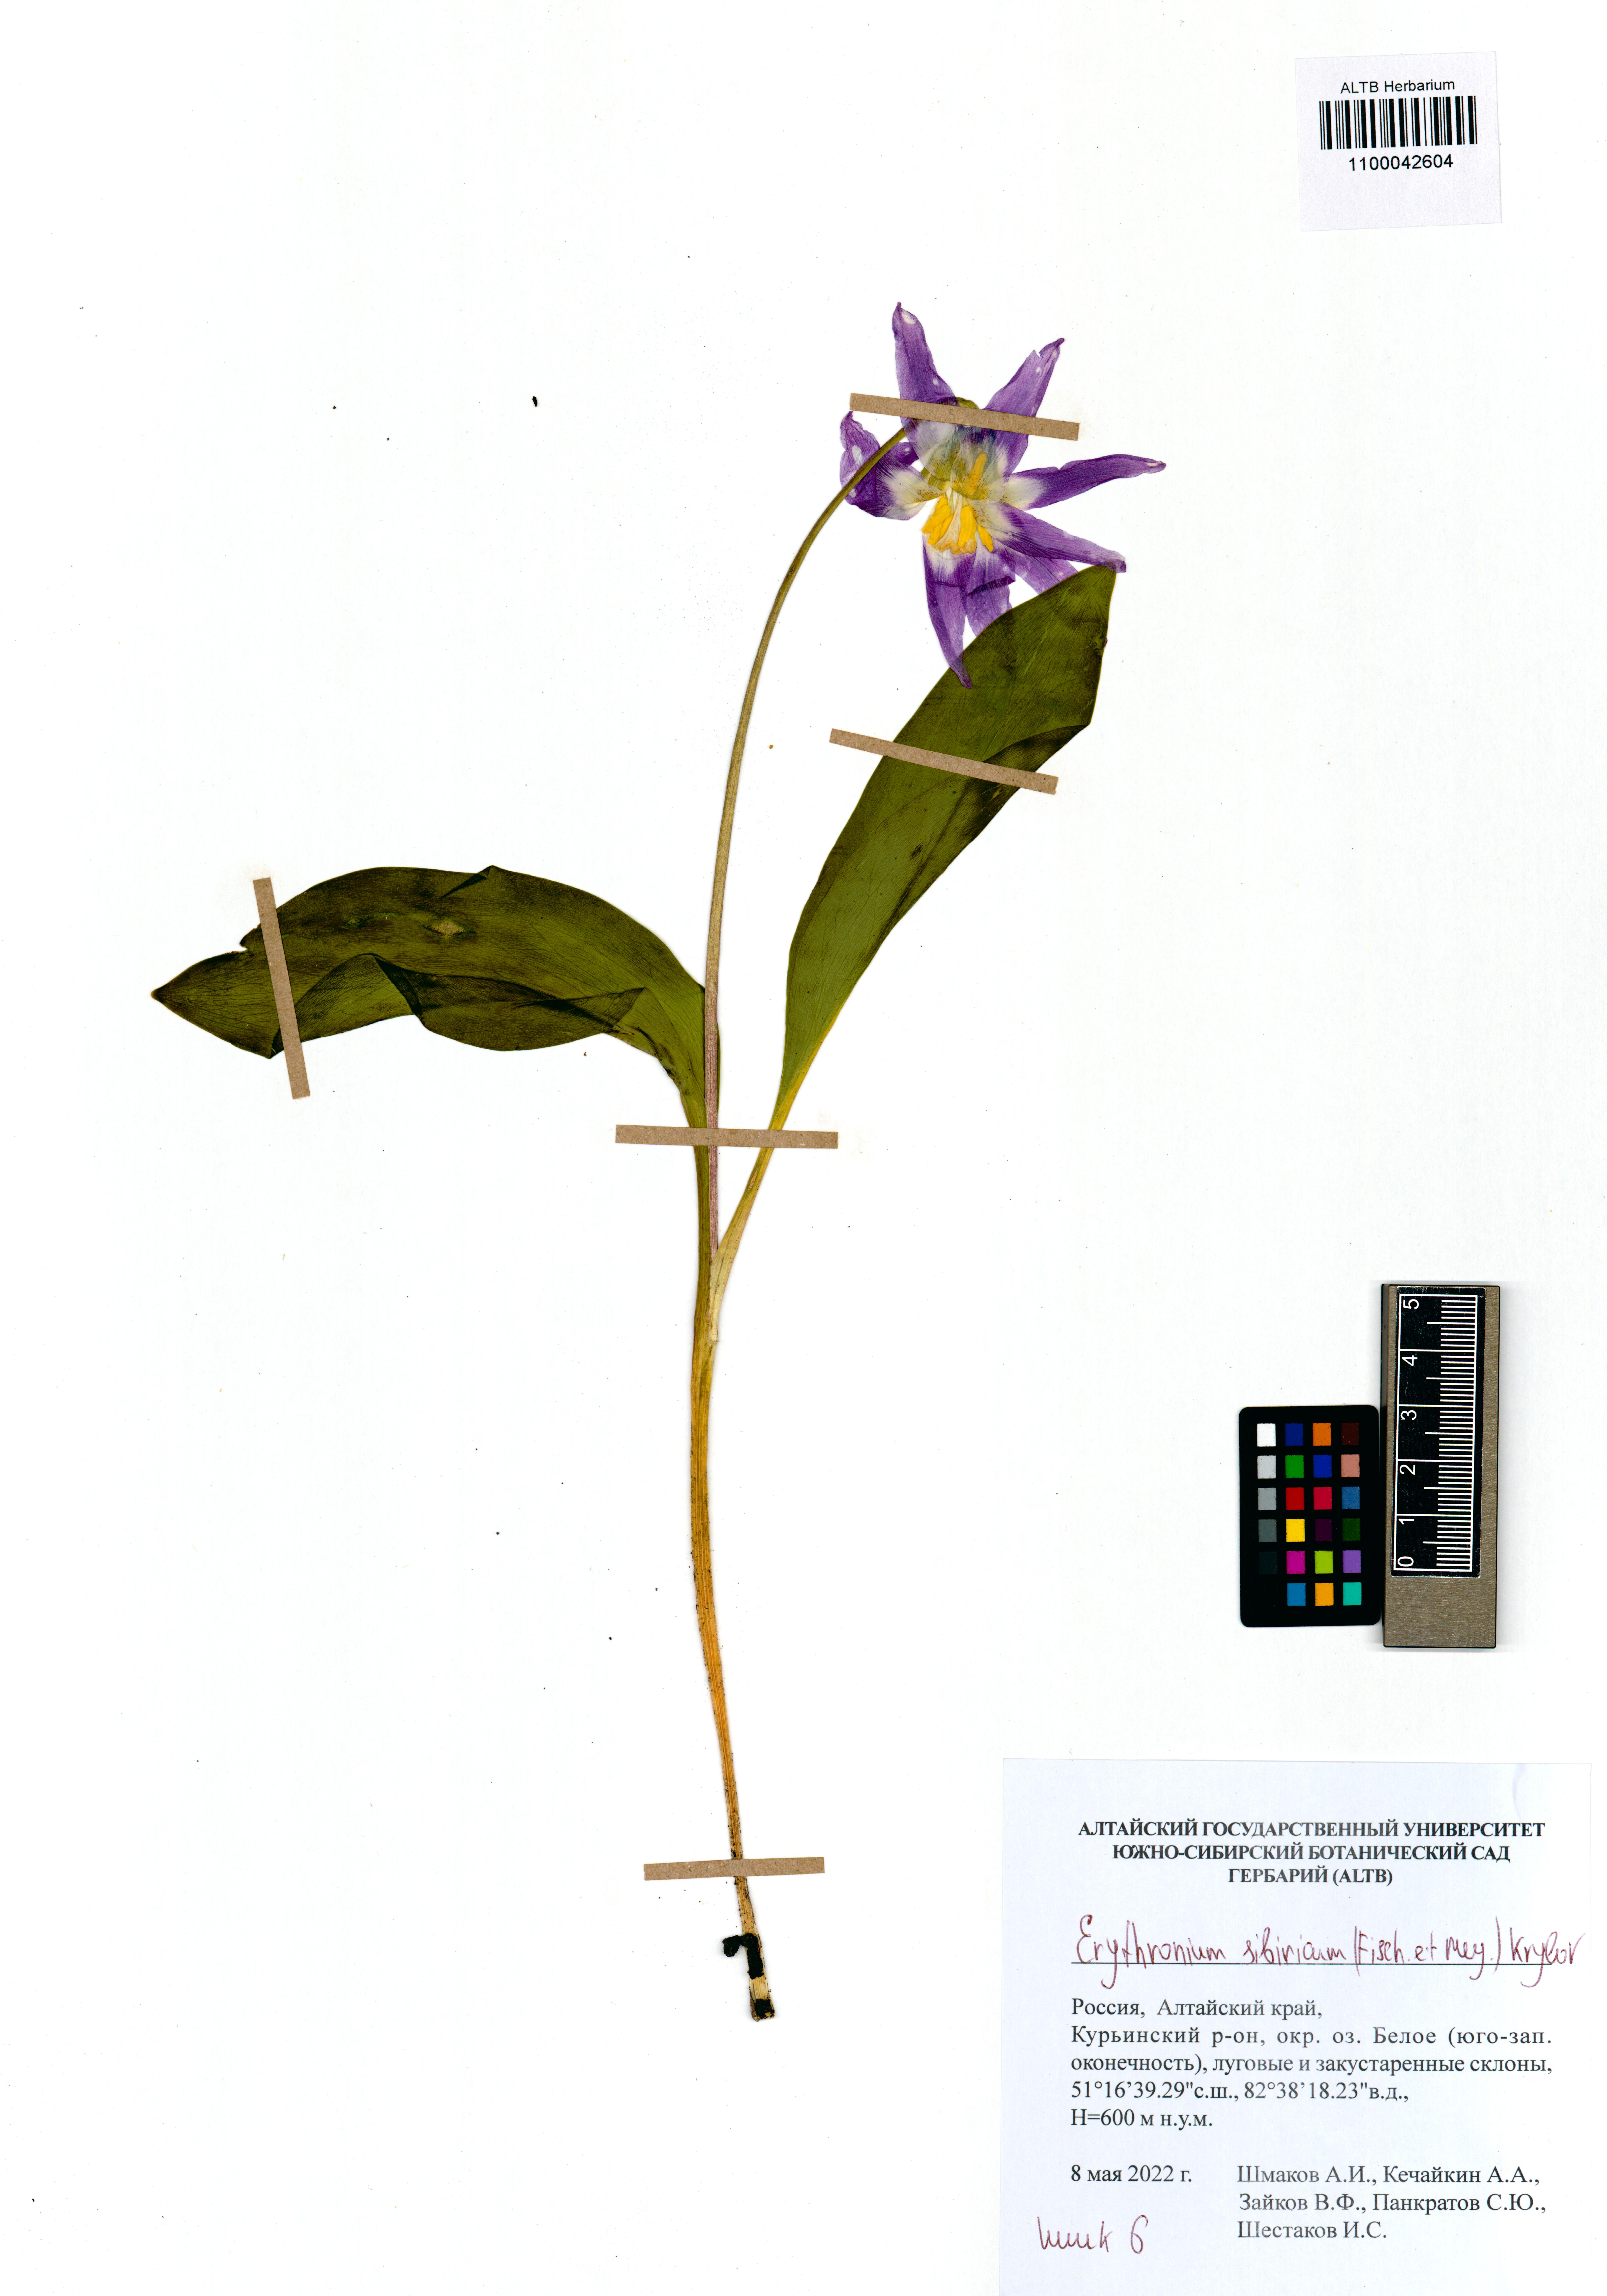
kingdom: Plantae
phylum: Tracheophyta
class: Liliopsida
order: Liliales
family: Liliaceae
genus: Erythronium
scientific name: Erythronium sibiricum
